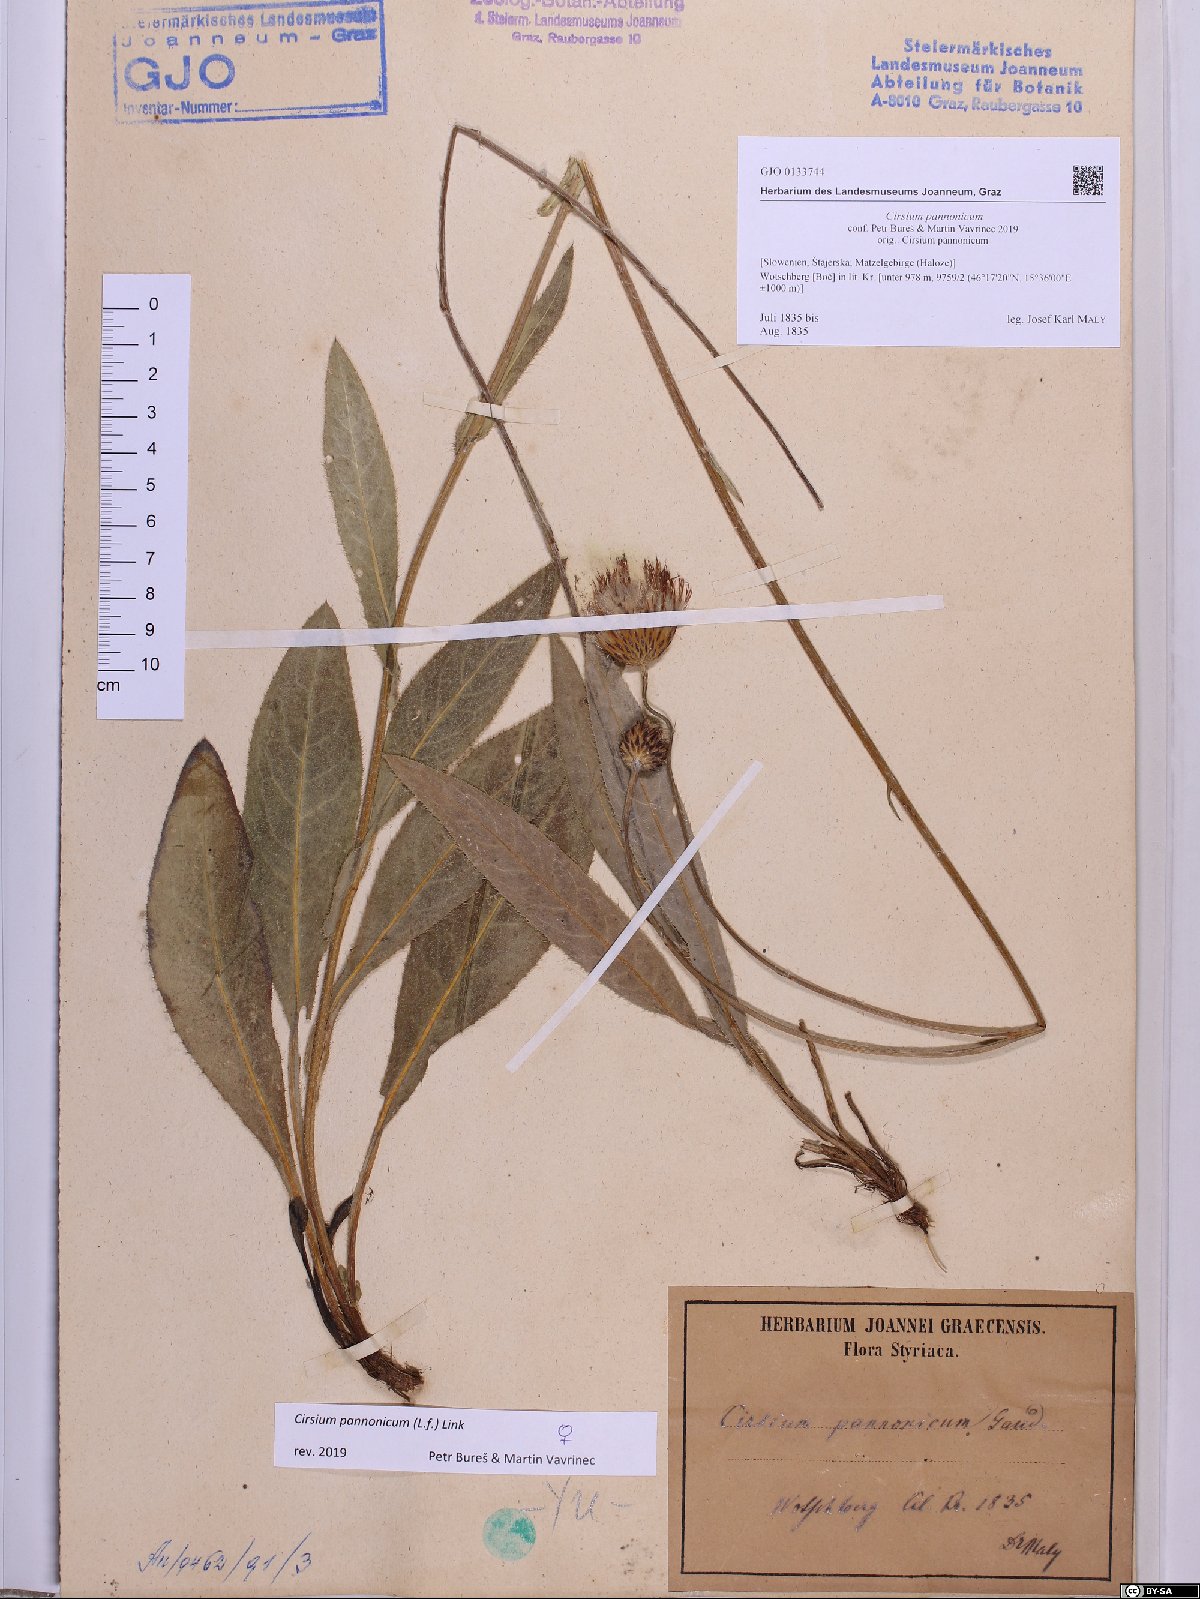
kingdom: Plantae
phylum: Tracheophyta
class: Magnoliopsida
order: Asterales
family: Asteraceae
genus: Cirsium
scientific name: Cirsium pannonicum
